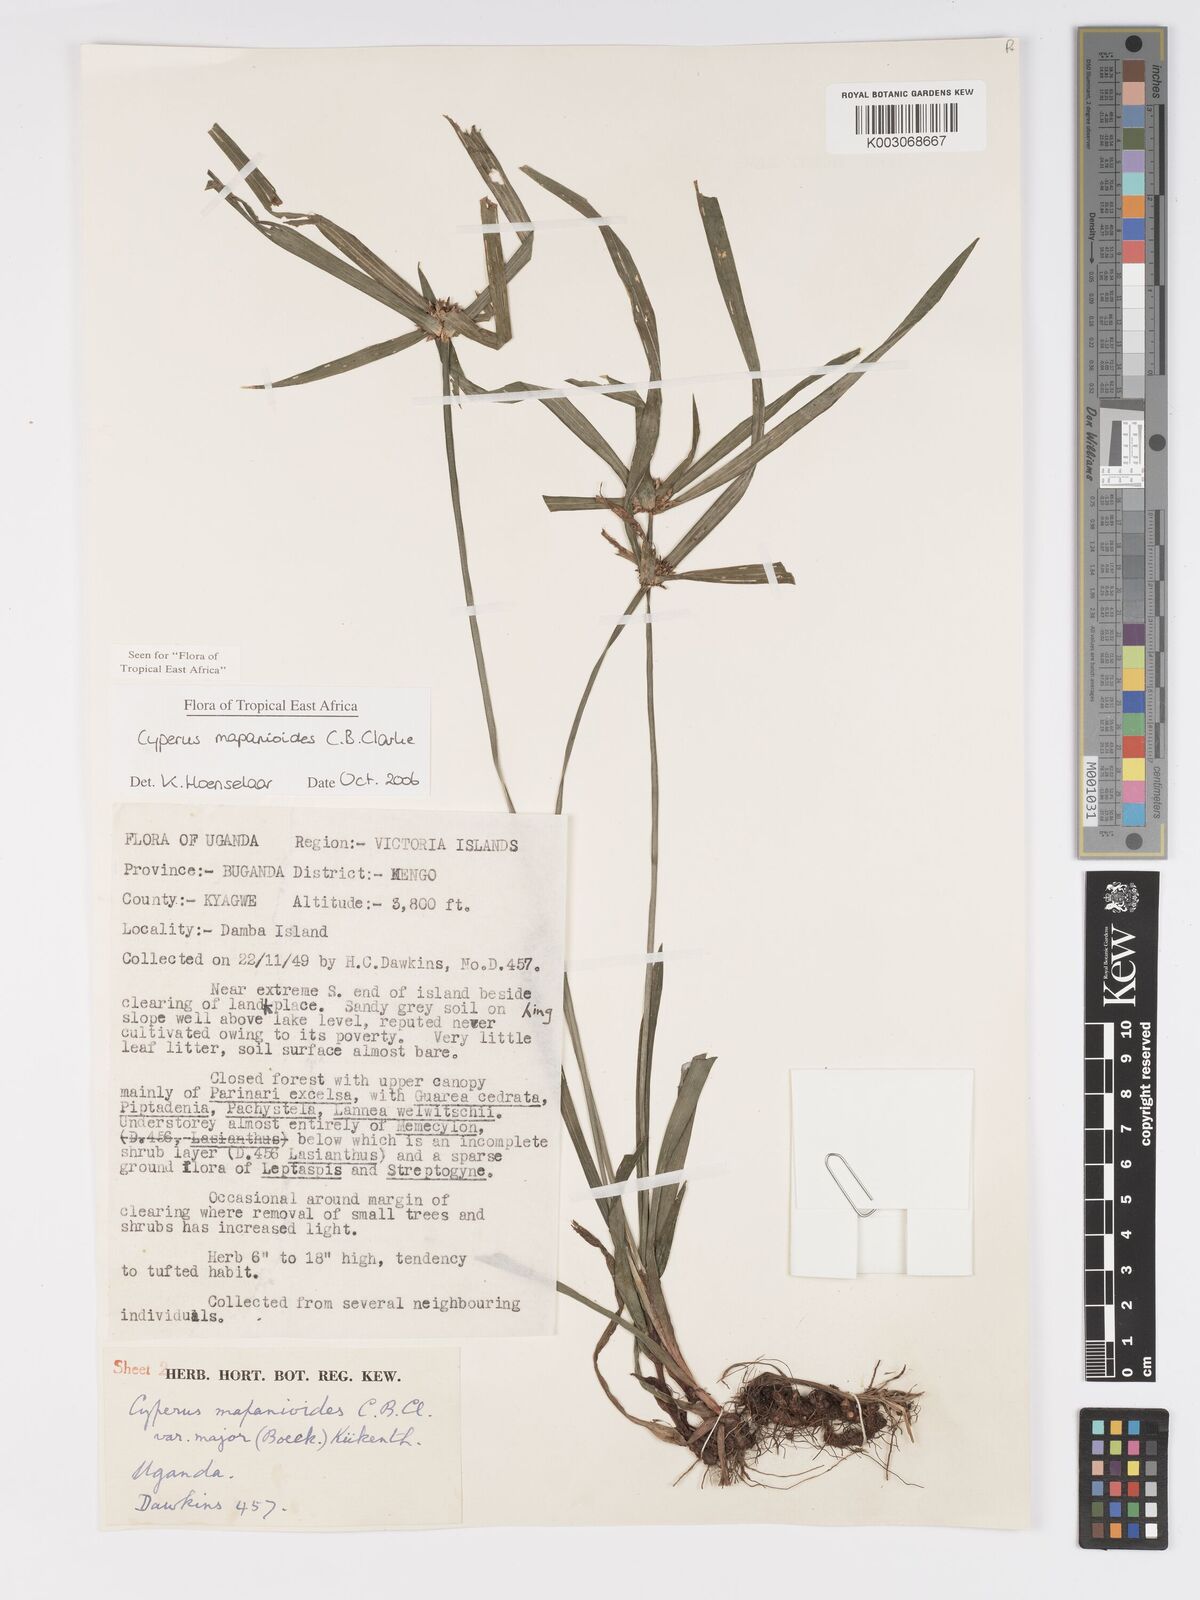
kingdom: Plantae
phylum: Tracheophyta
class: Liliopsida
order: Poales
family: Cyperaceae
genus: Cyperus
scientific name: Cyperus mapanioides
